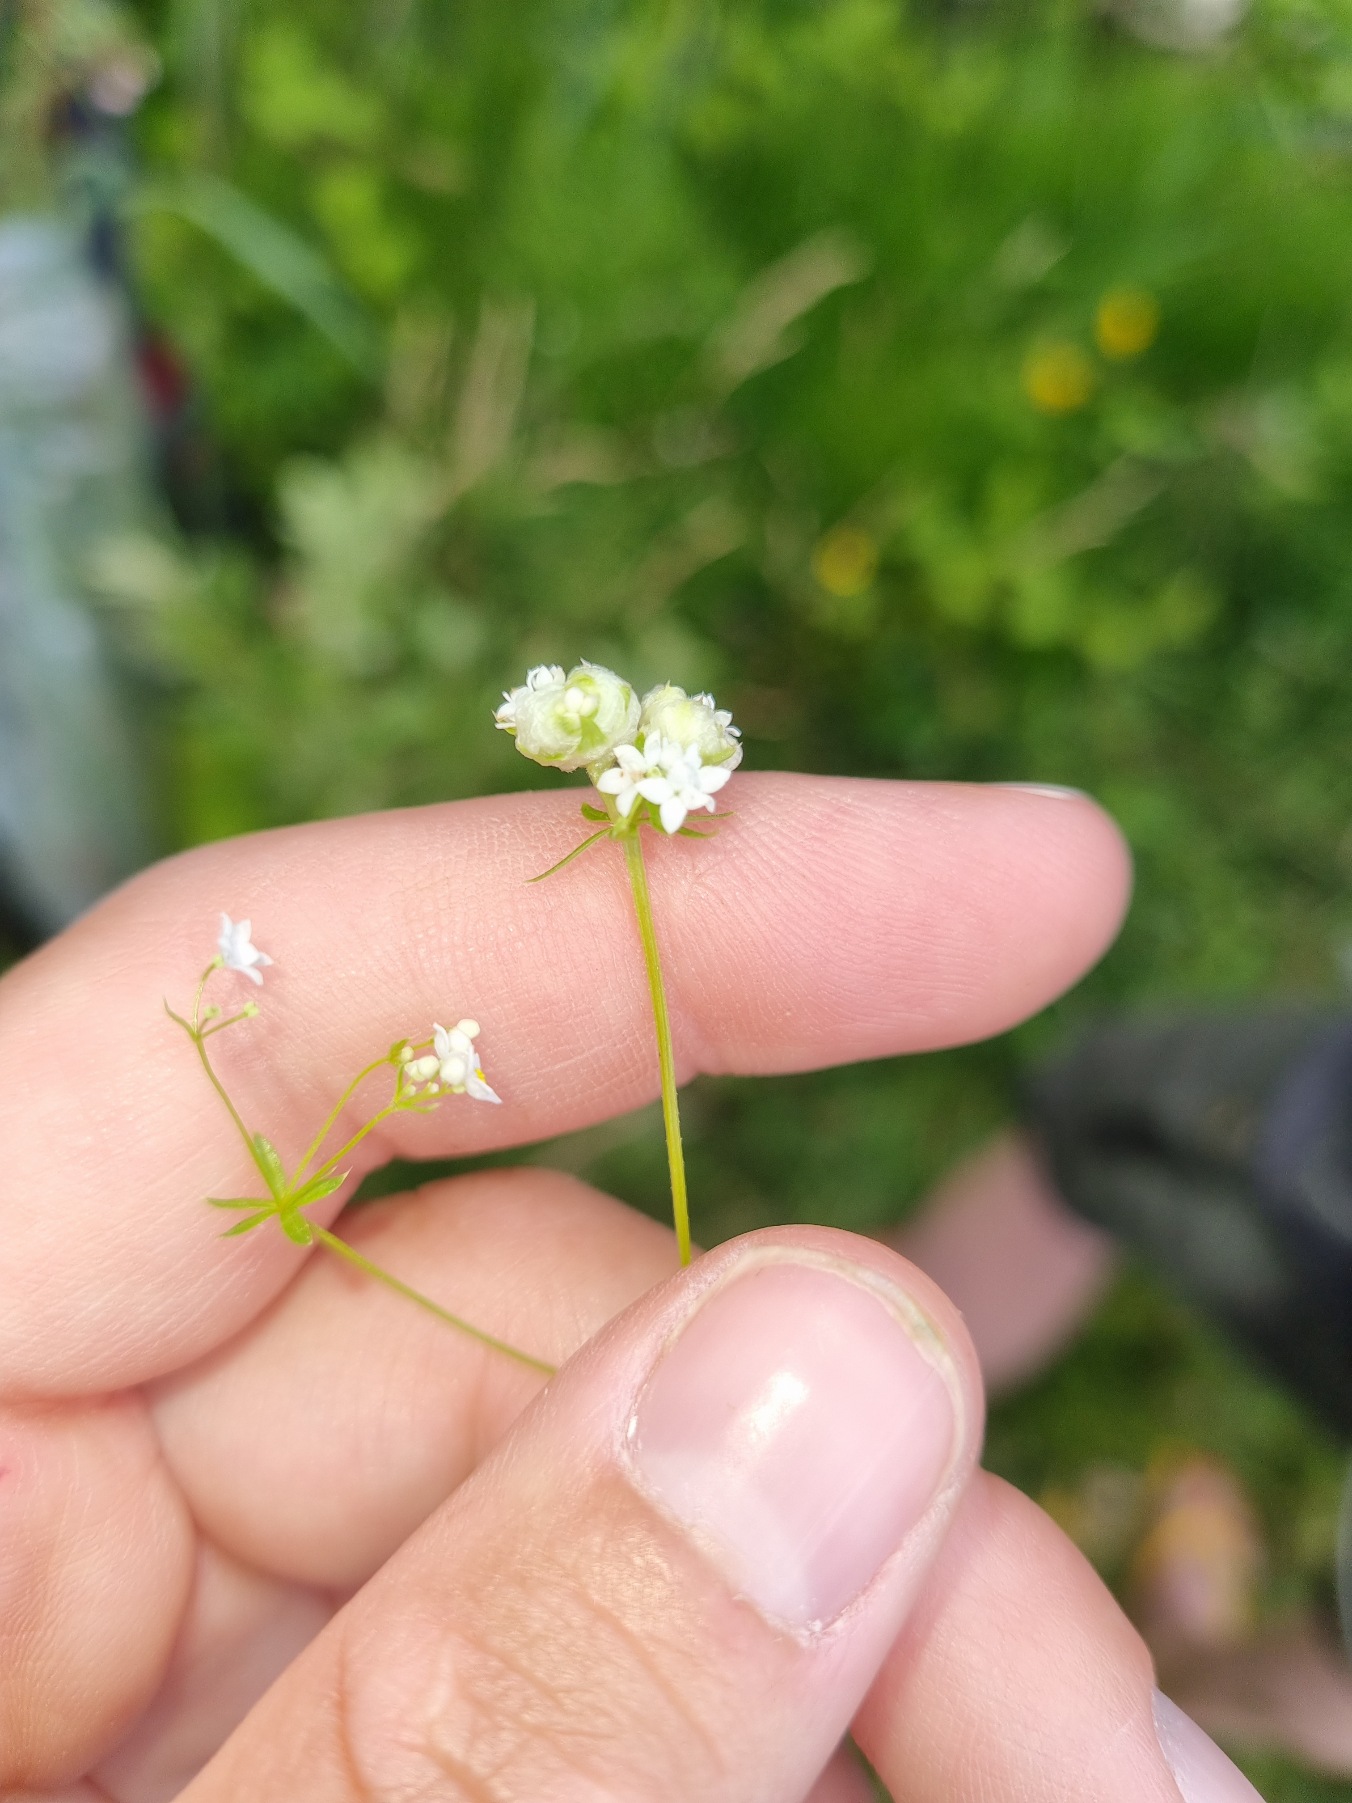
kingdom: Animalia
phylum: Arthropoda
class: Insecta
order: Diptera
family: Cecidomyiidae
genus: Dasineura
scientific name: Dasineura galiicola
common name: Sumpsnerregalmyg
